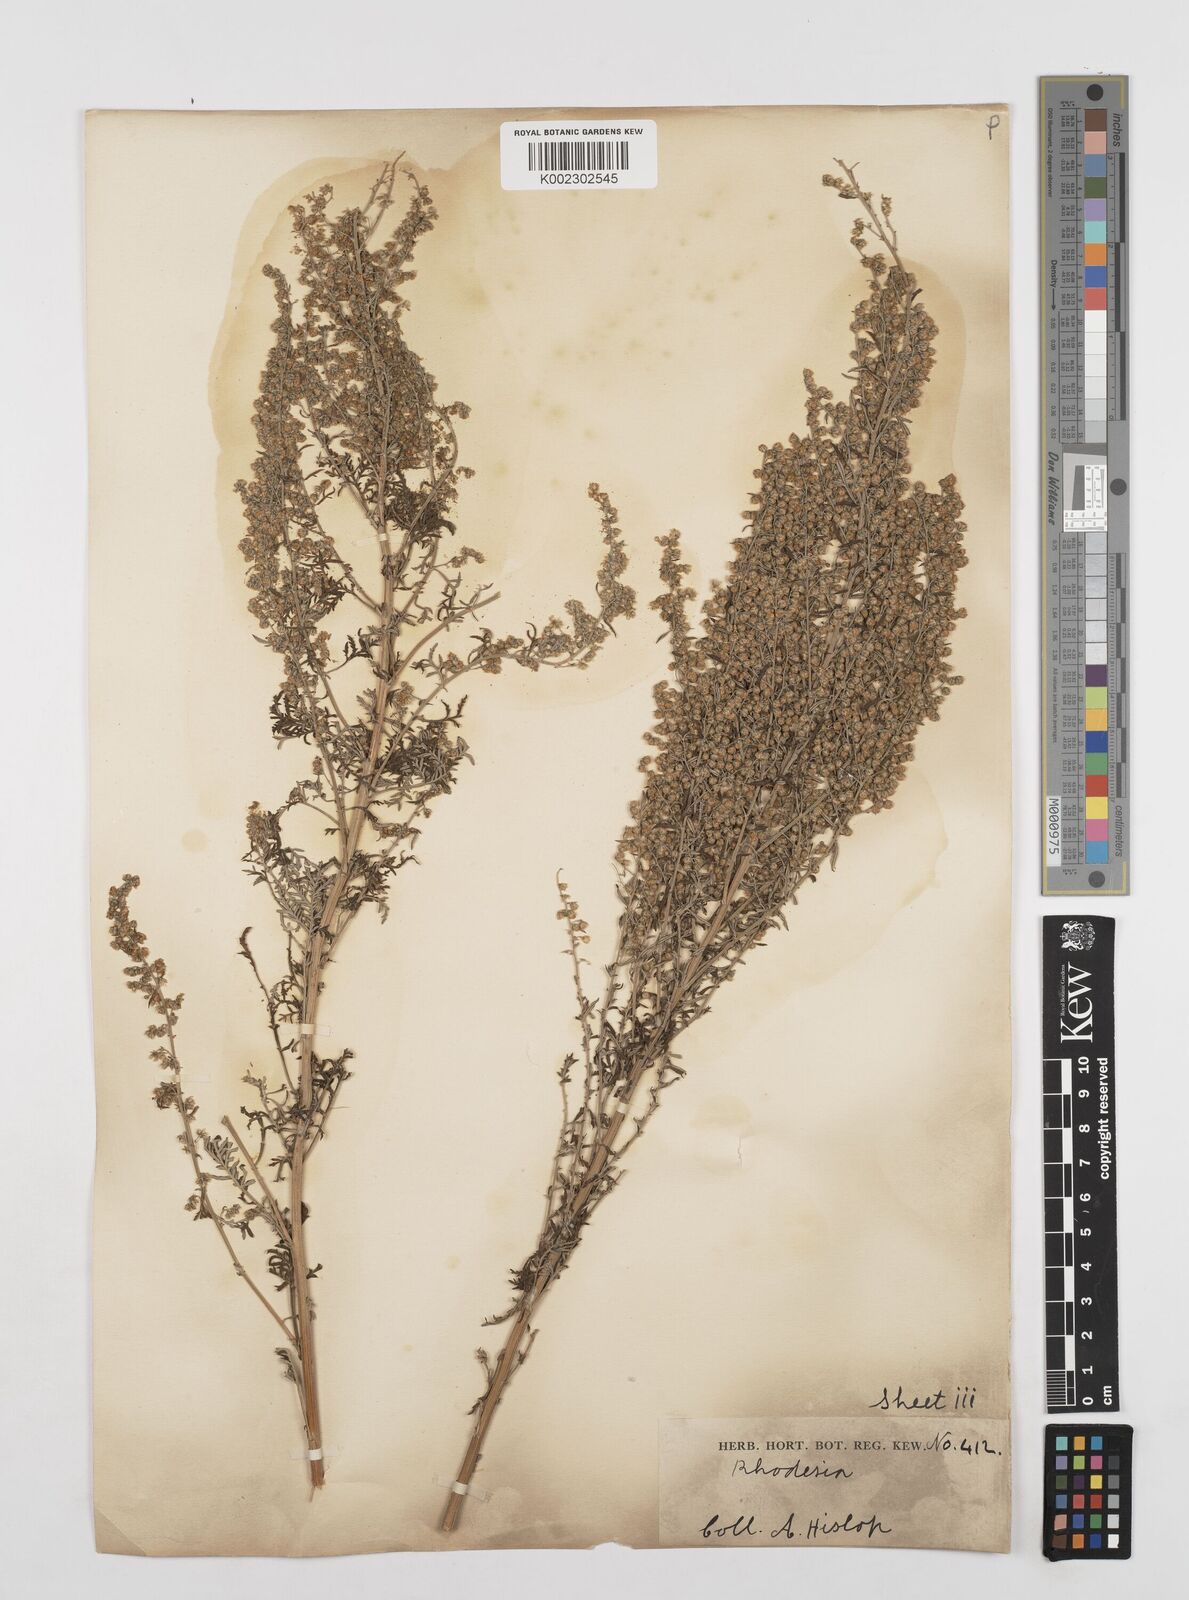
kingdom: Plantae
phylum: Tracheophyta
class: Magnoliopsida
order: Asterales
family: Asteraceae
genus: Artemisia
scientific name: Artemisia afra
